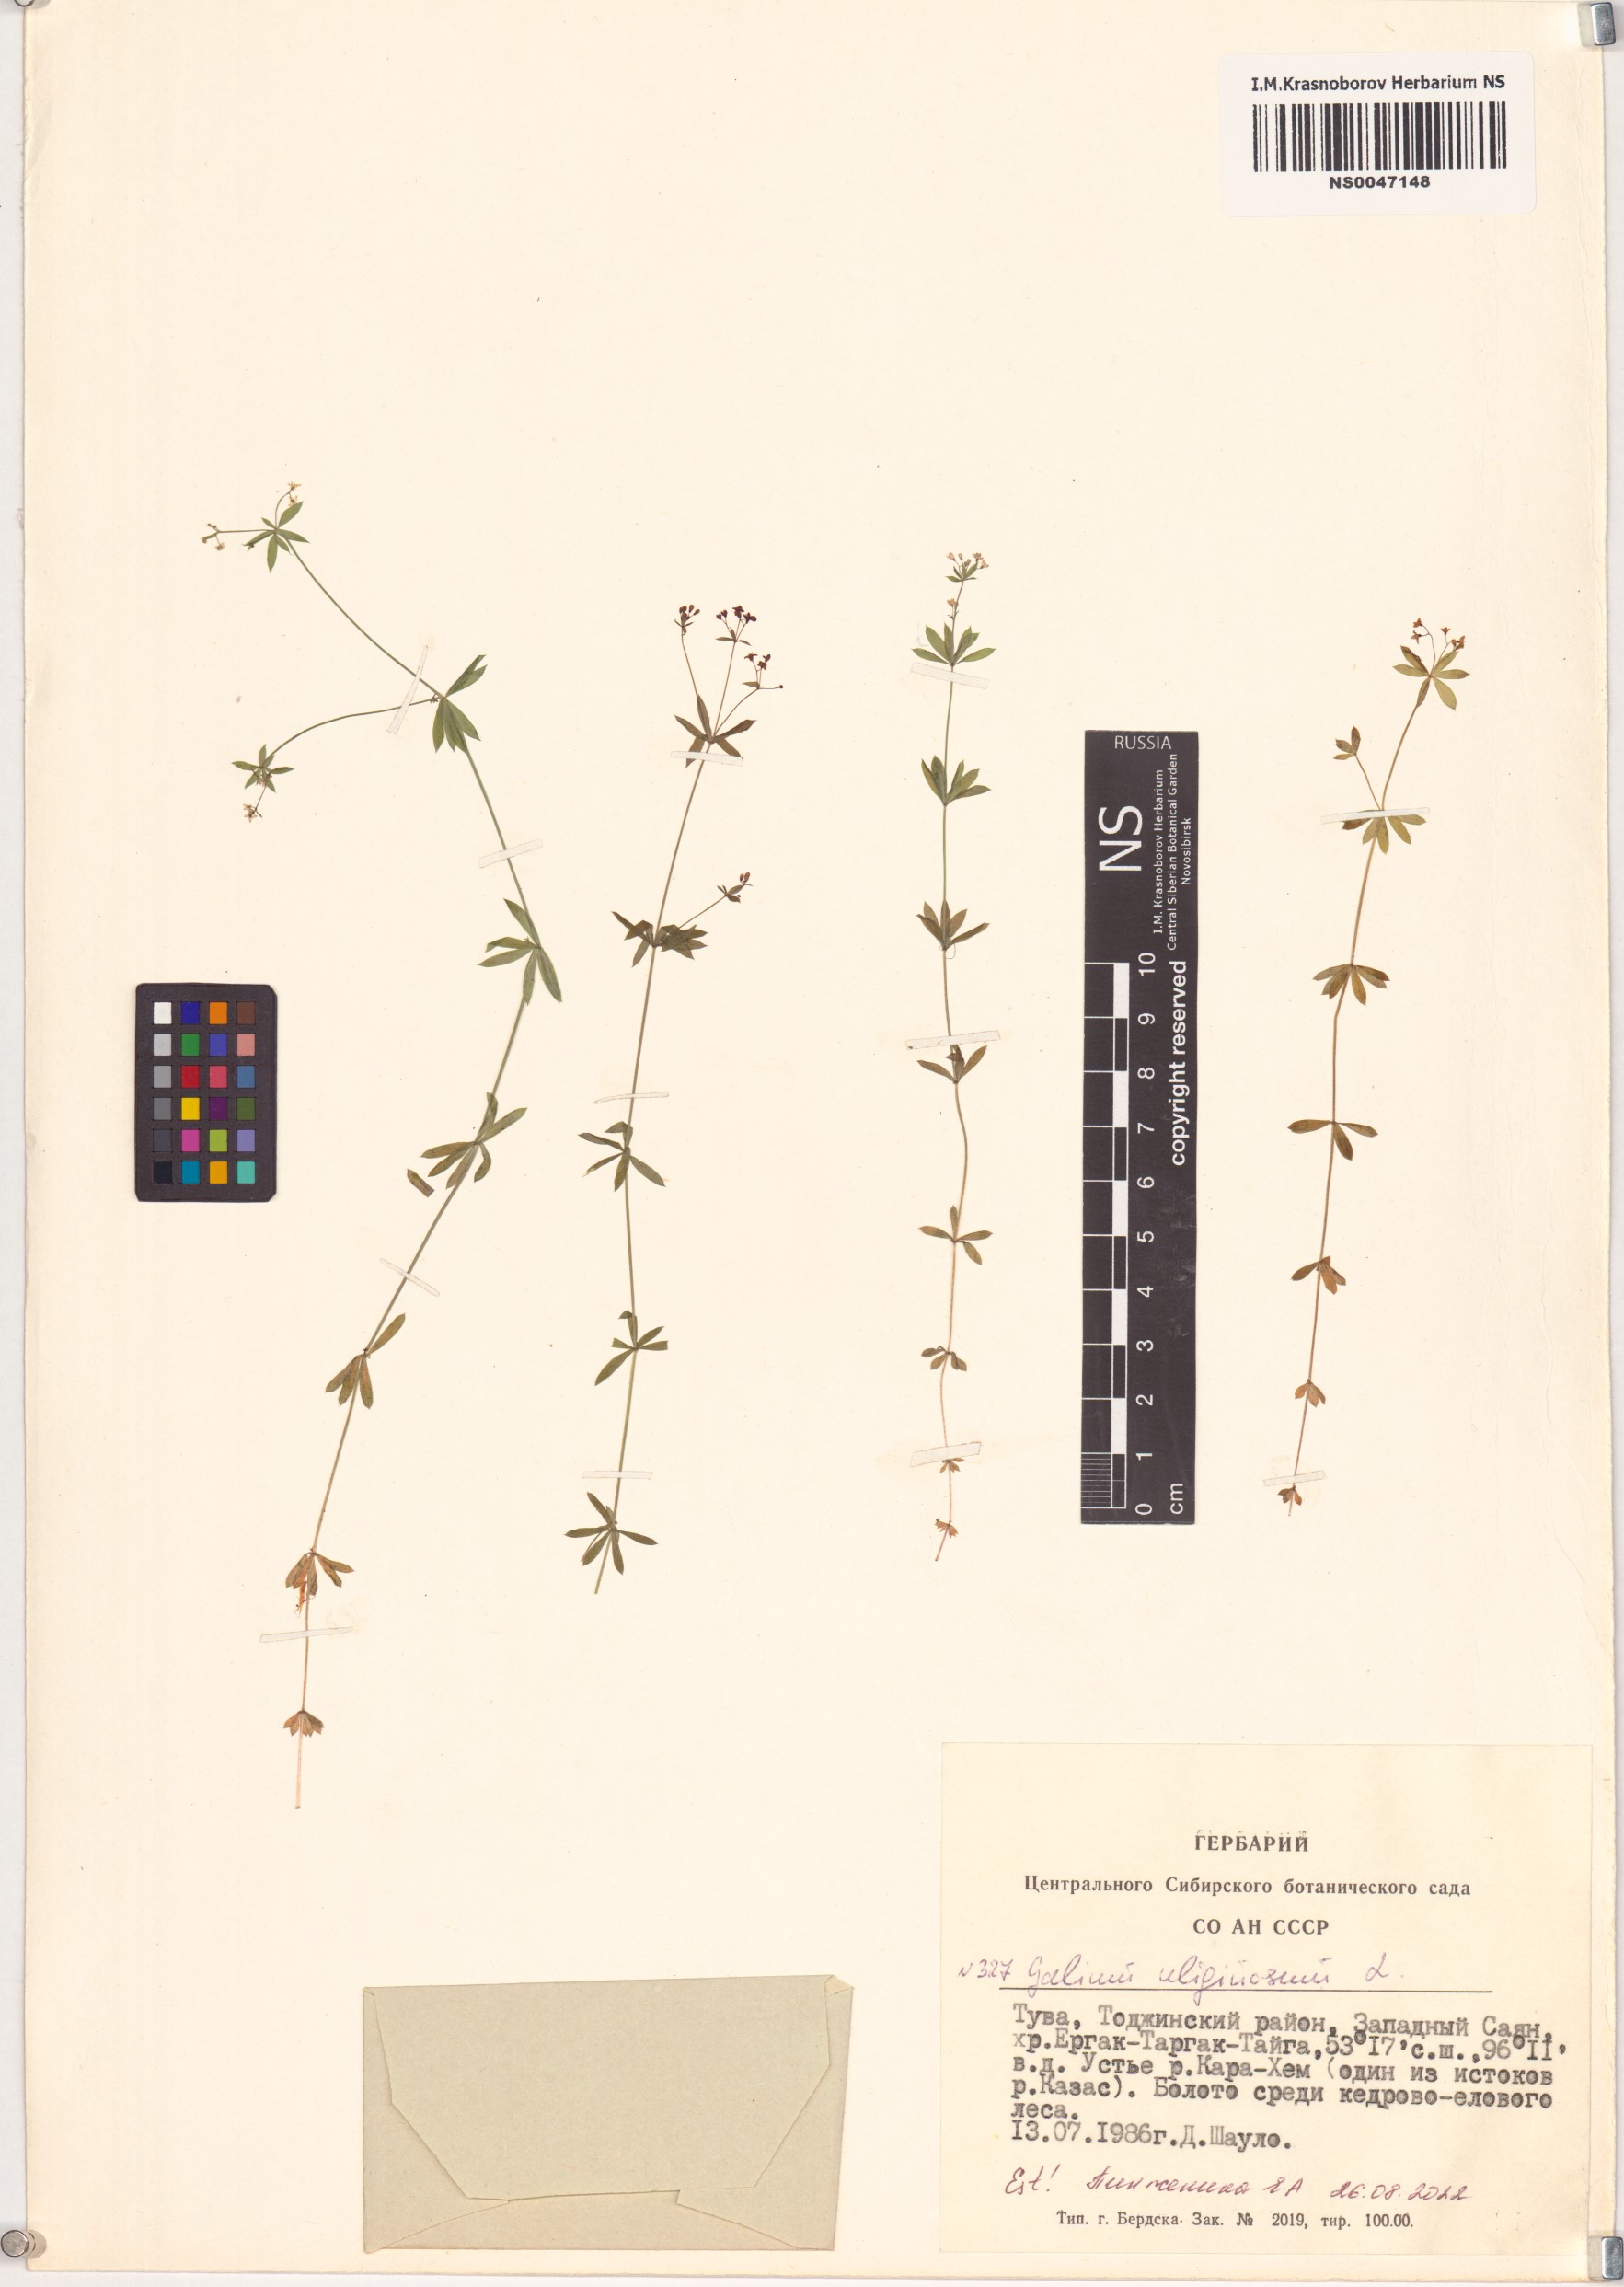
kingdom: Plantae
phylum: Tracheophyta
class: Magnoliopsida
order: Gentianales
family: Rubiaceae
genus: Galium
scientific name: Galium uliginosum
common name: Fen bedstraw
